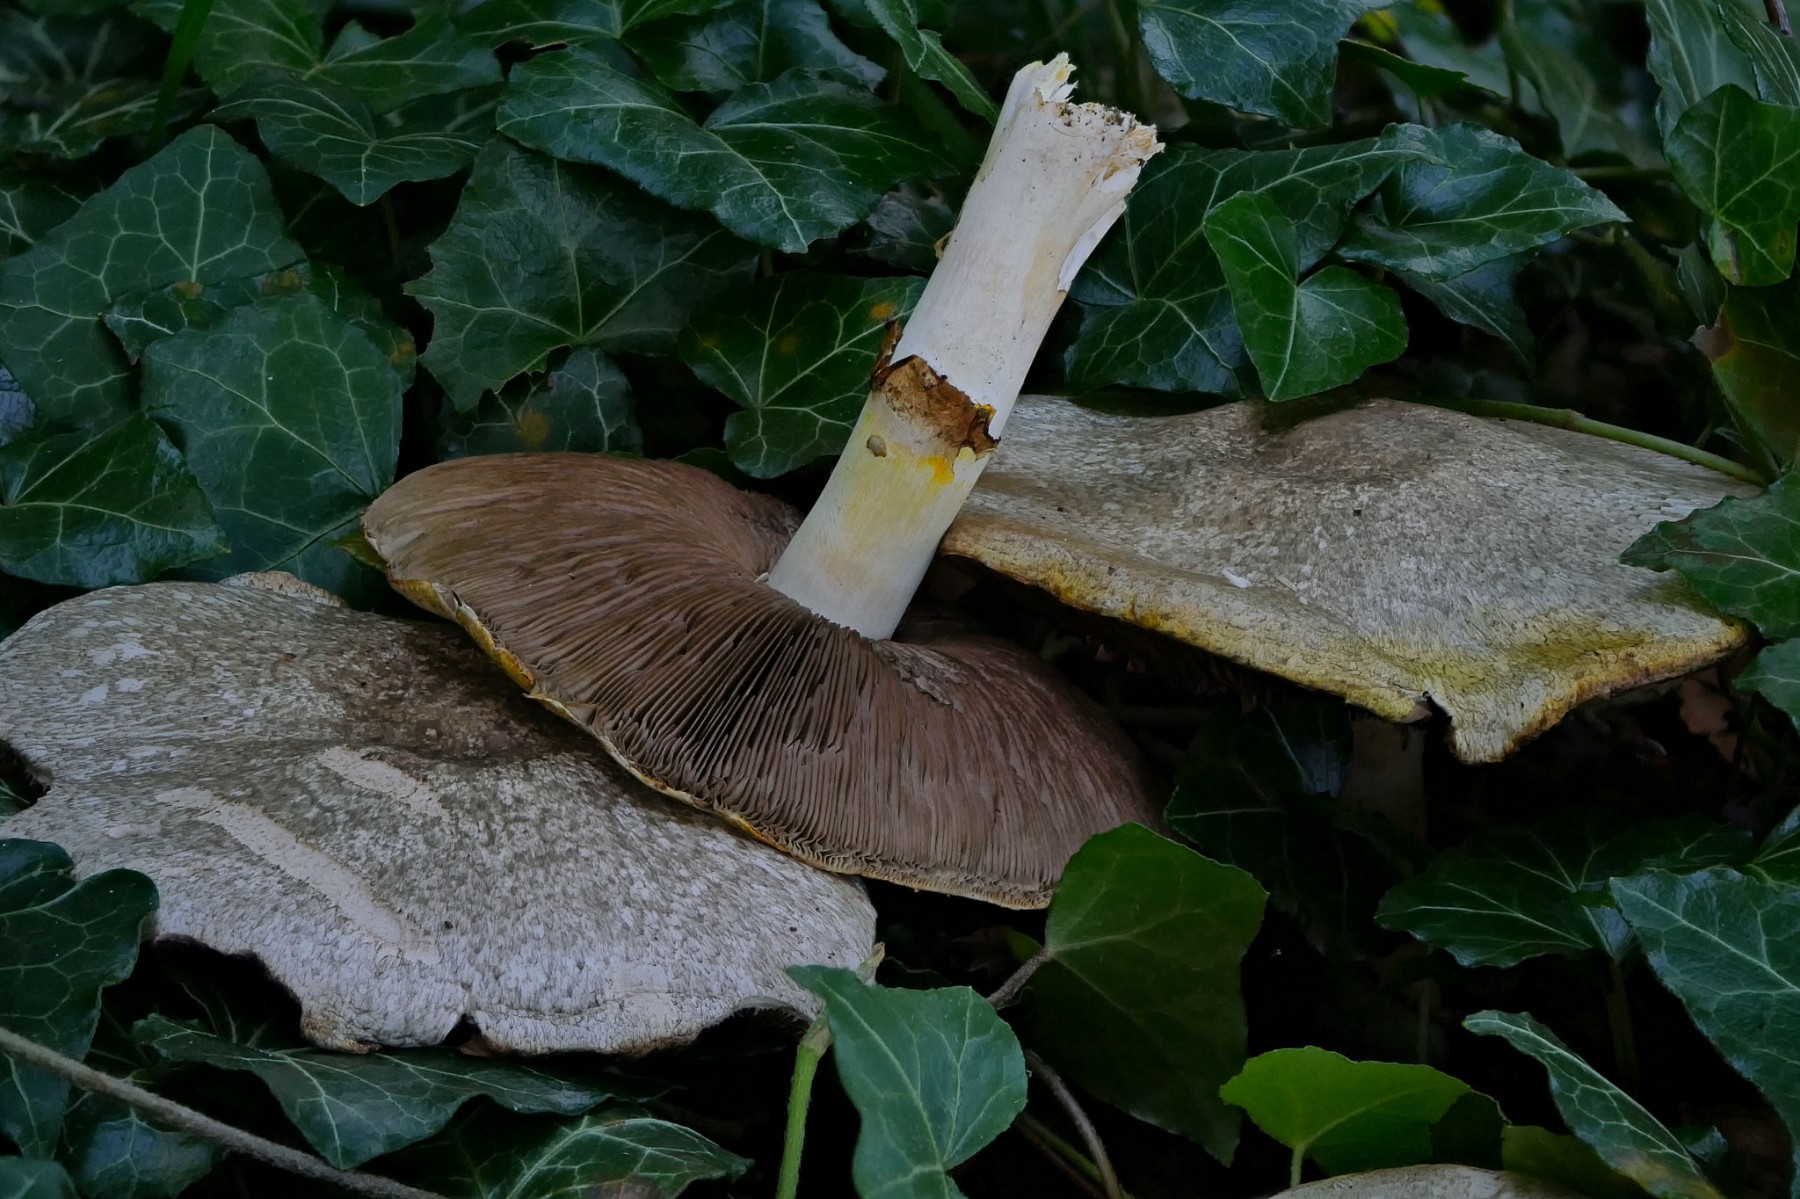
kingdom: Fungi
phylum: Basidiomycota
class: Agaricomycetes
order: Agaricales
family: Agaricaceae
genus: Agaricus
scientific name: Agaricus moelleri
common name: perlehøne-champignon
